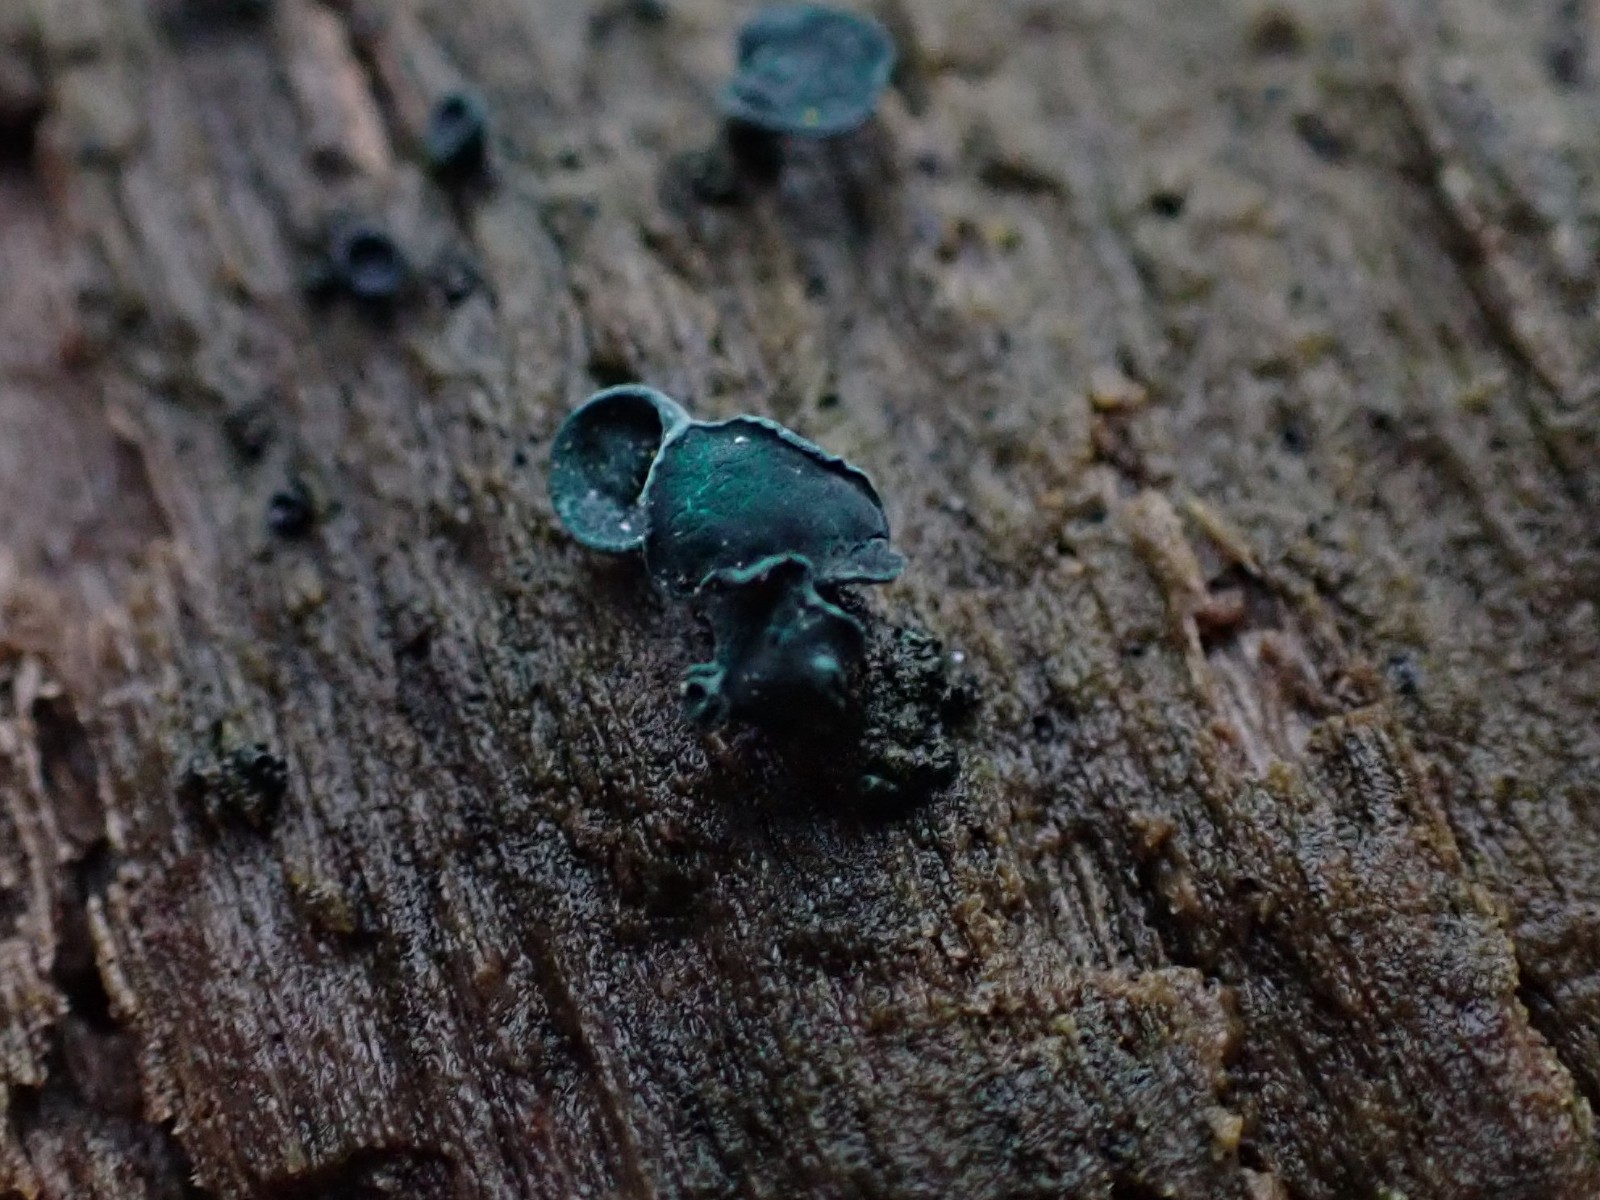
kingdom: Fungi
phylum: Ascomycota
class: Leotiomycetes
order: Helotiales
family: Chlorociboriaceae
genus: Chlorociboria
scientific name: Chlorociboria aeruginascens
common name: almindelig grønskive
